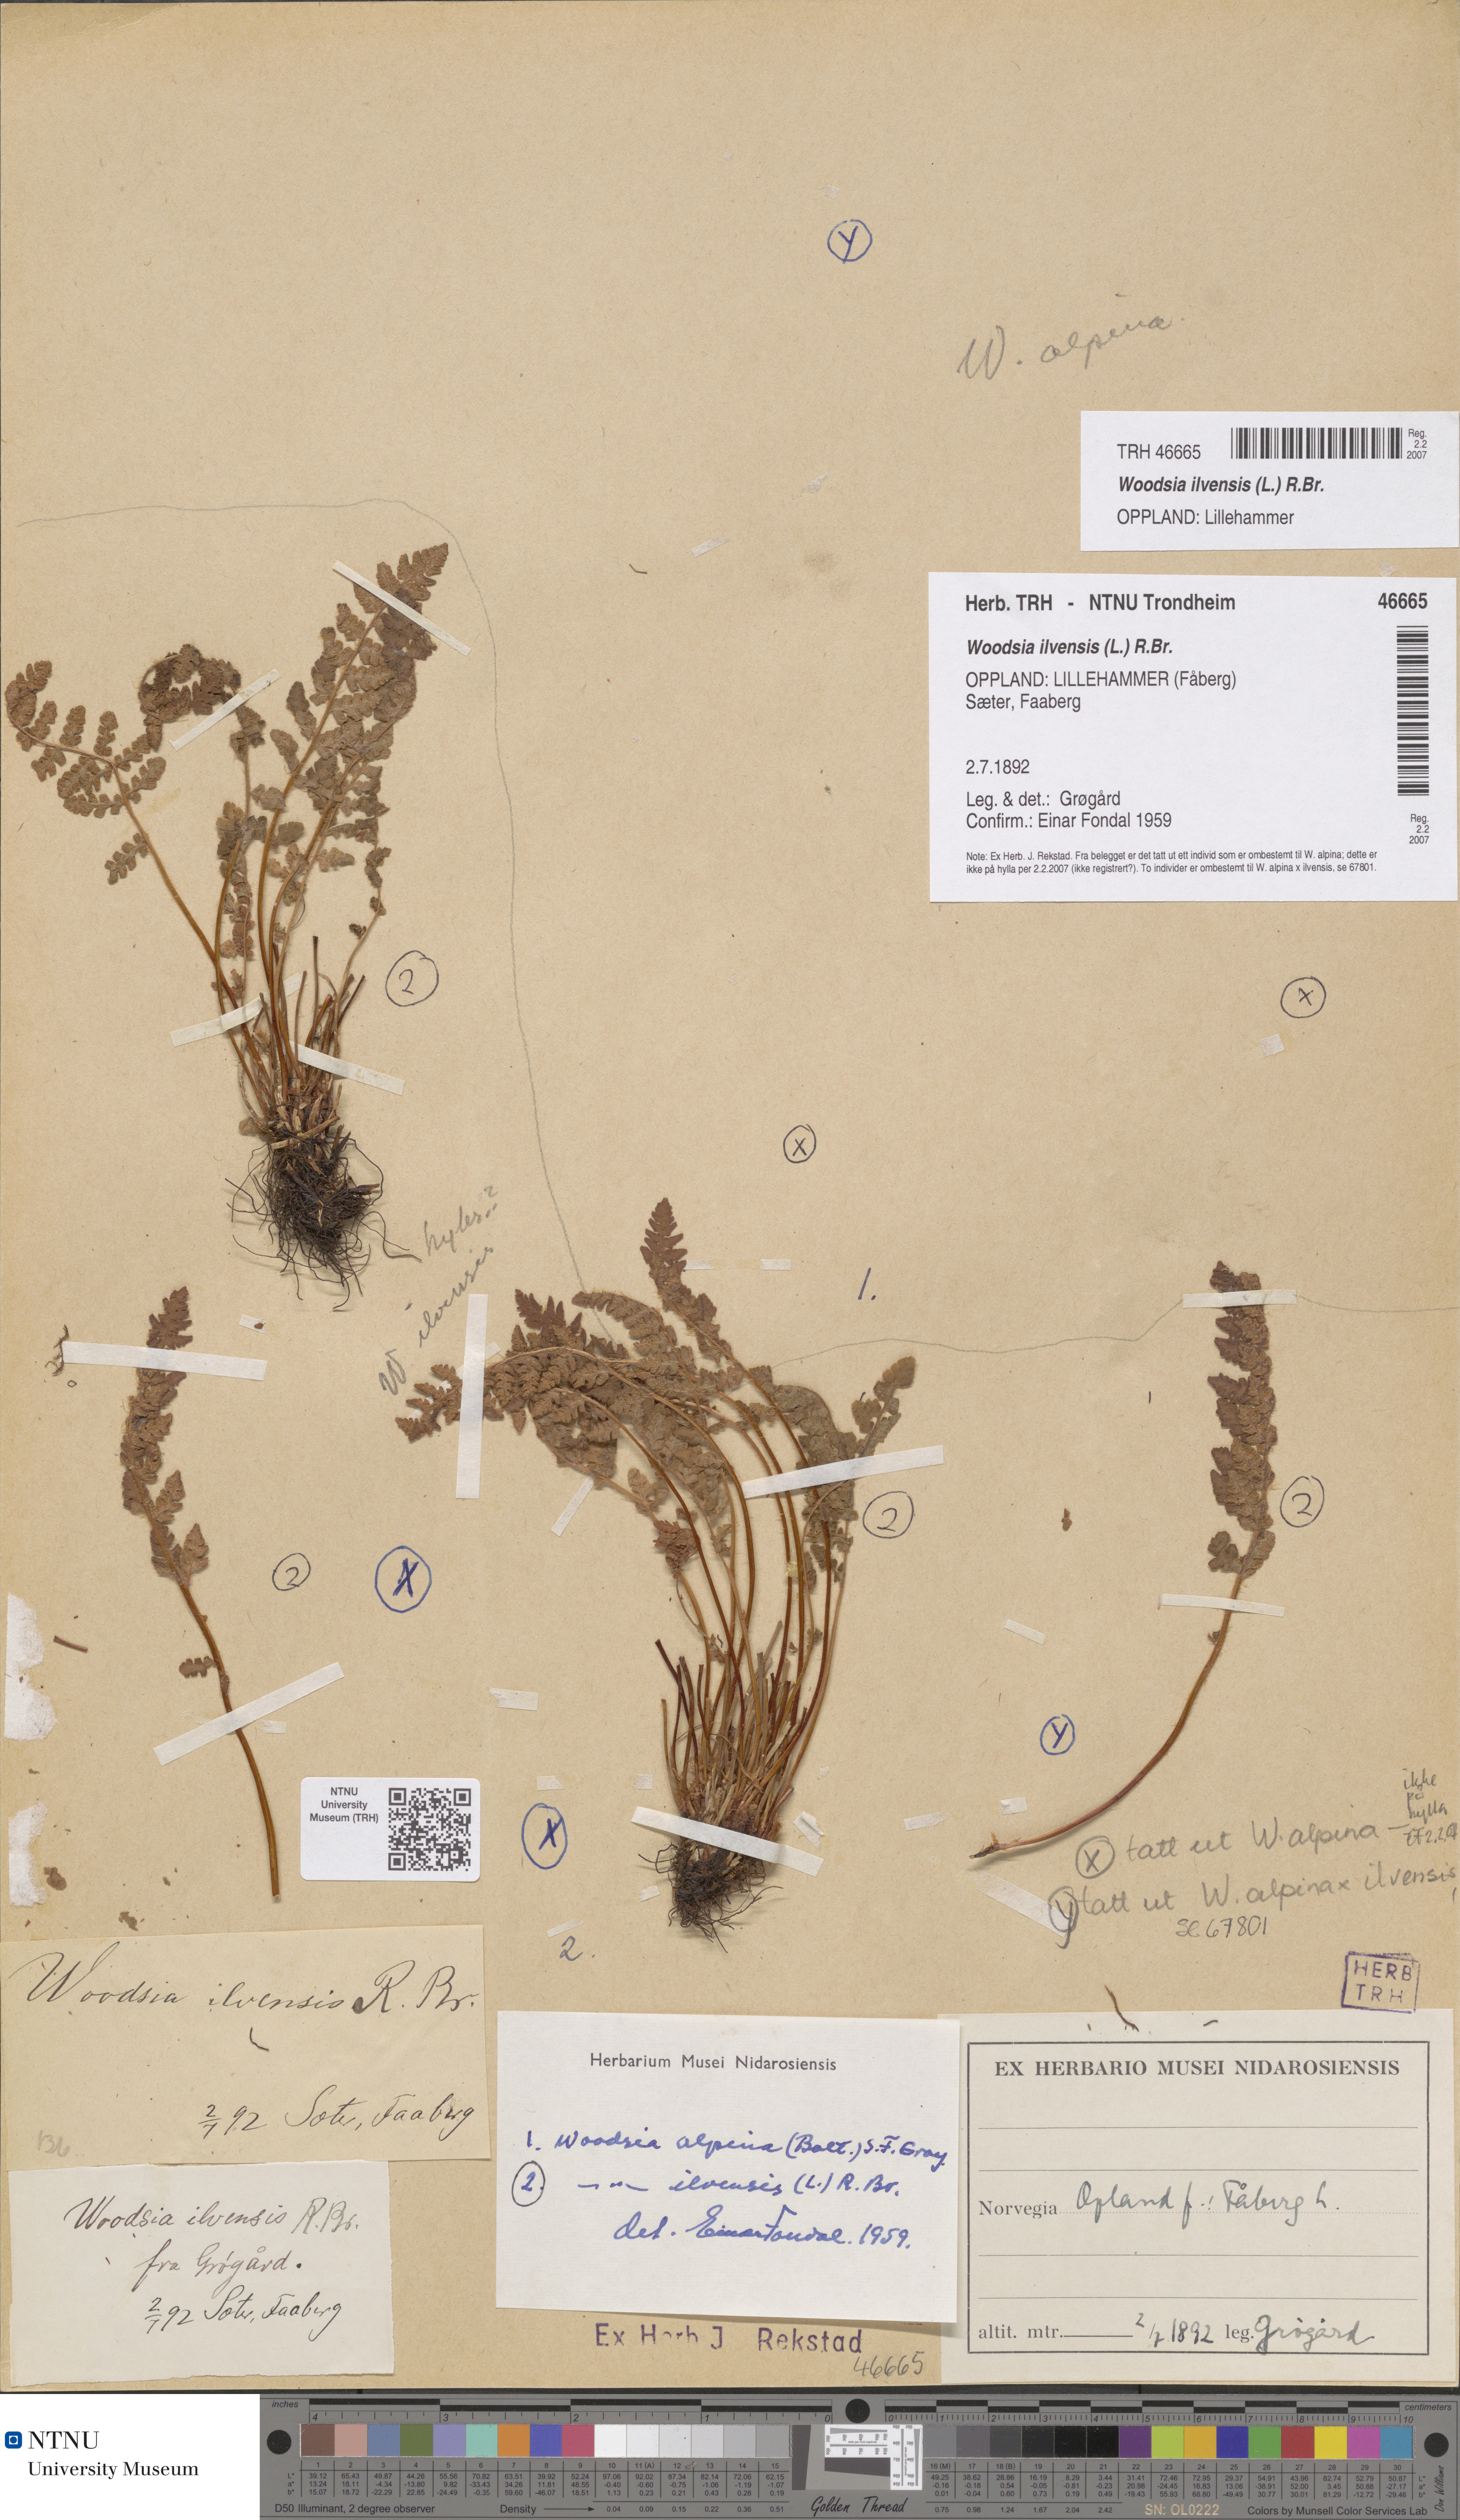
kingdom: Plantae
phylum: Tracheophyta
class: Polypodiopsida
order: Polypodiales
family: Woodsiaceae
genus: Woodsia
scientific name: Woodsia ilvensis
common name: Fragrant woodsia
